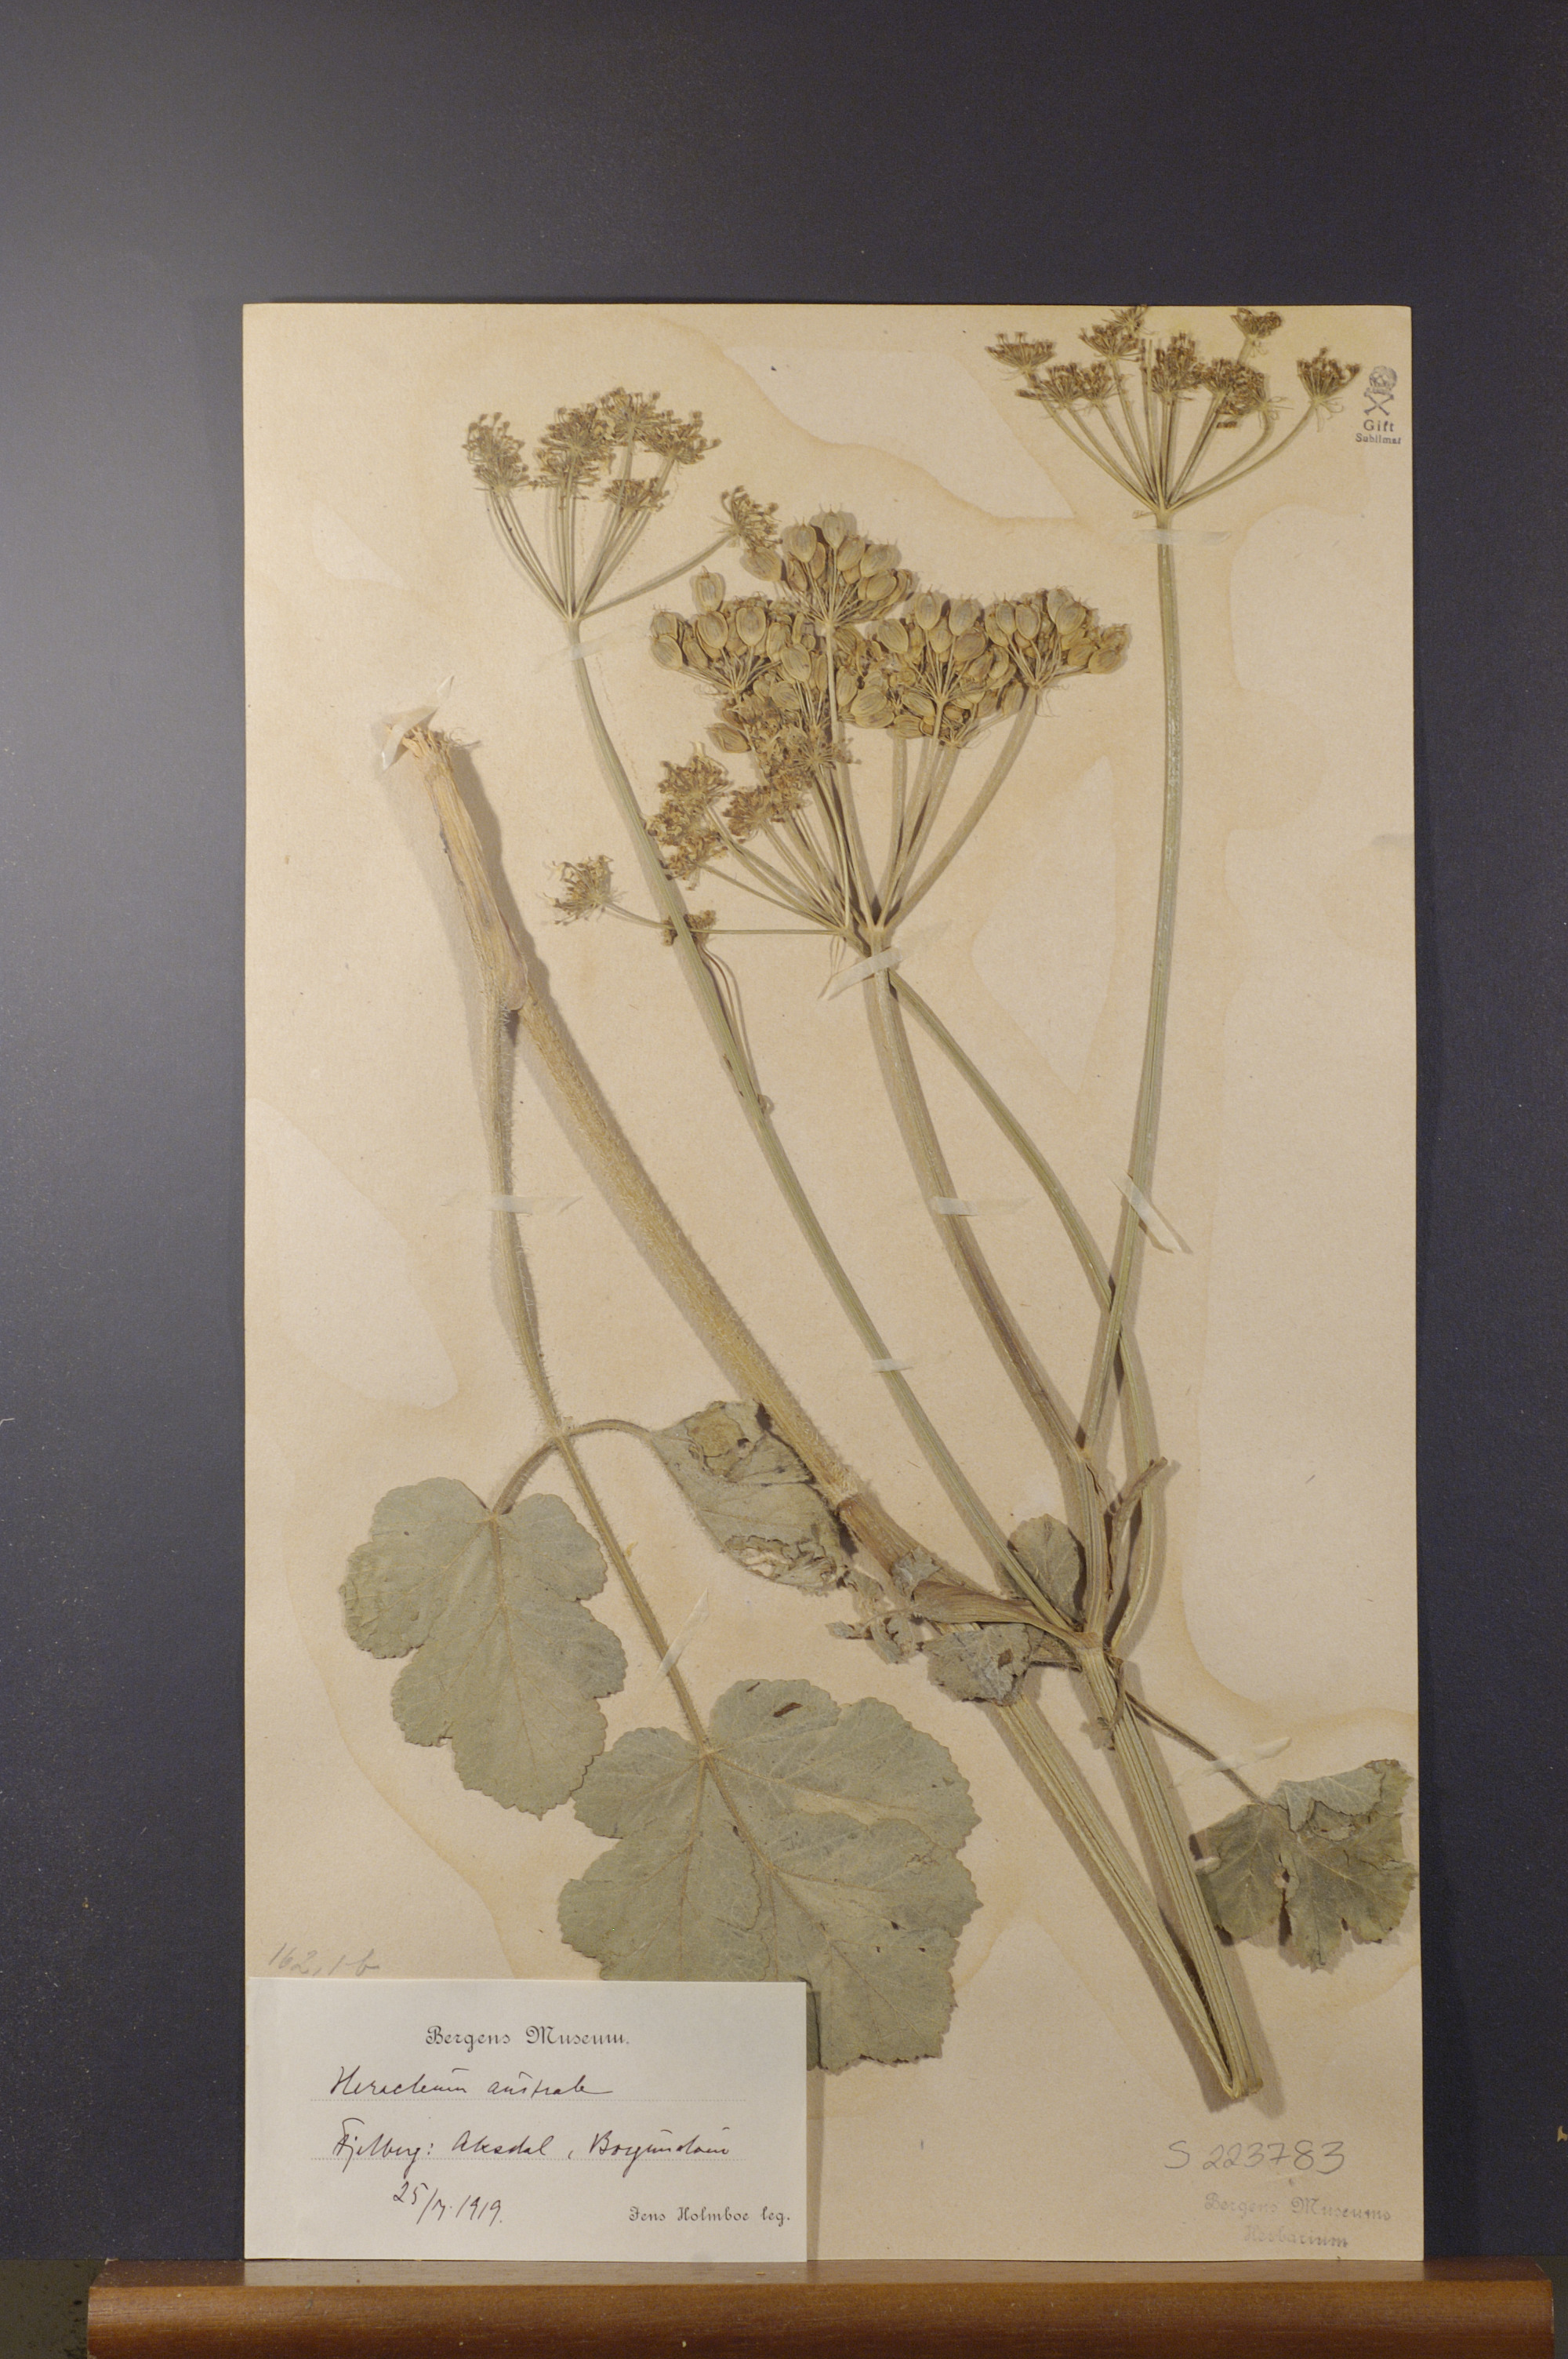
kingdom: Plantae
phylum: Tracheophyta
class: Magnoliopsida
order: Apiales
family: Apiaceae
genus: Heracleum
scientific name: Heracleum sphondylium
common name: Hogweed
